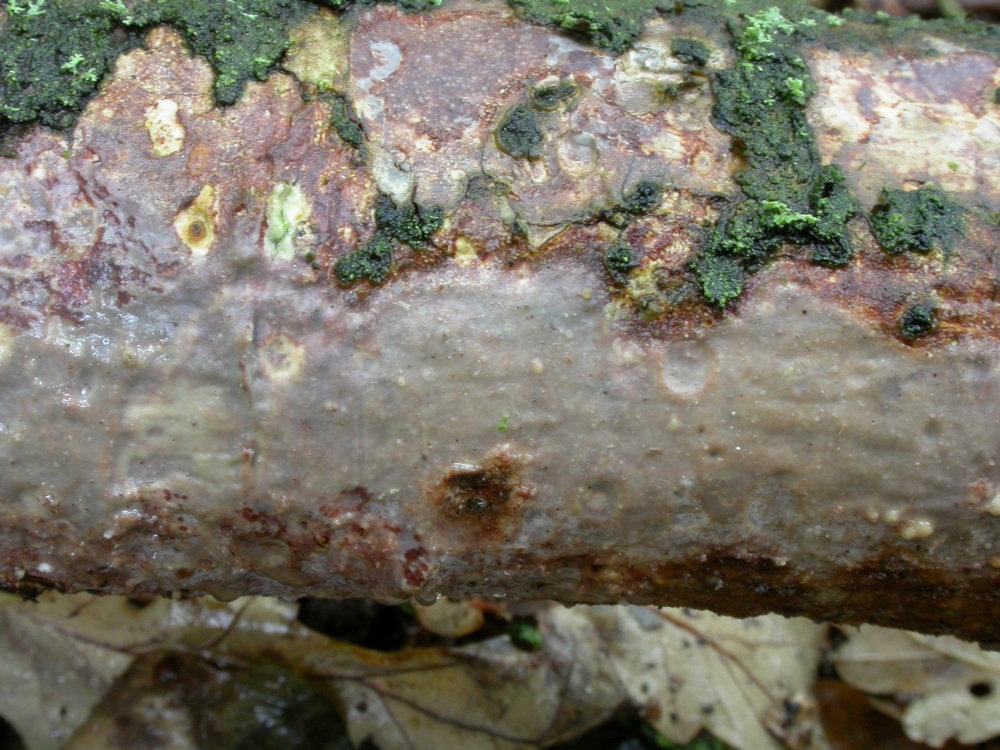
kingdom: Fungi
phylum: Basidiomycota
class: Agaricomycetes
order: Corticiales
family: Vuilleminiaceae
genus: Vuilleminia
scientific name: Vuilleminia comedens
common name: almindelig barksprænger
